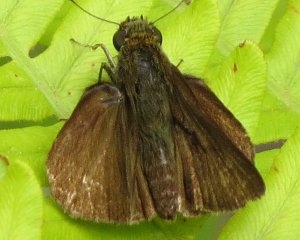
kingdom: Animalia
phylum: Arthropoda
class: Insecta
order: Lepidoptera
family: Hesperiidae
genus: Euphyes
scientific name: Euphyes vestris
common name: Dun Skipper
